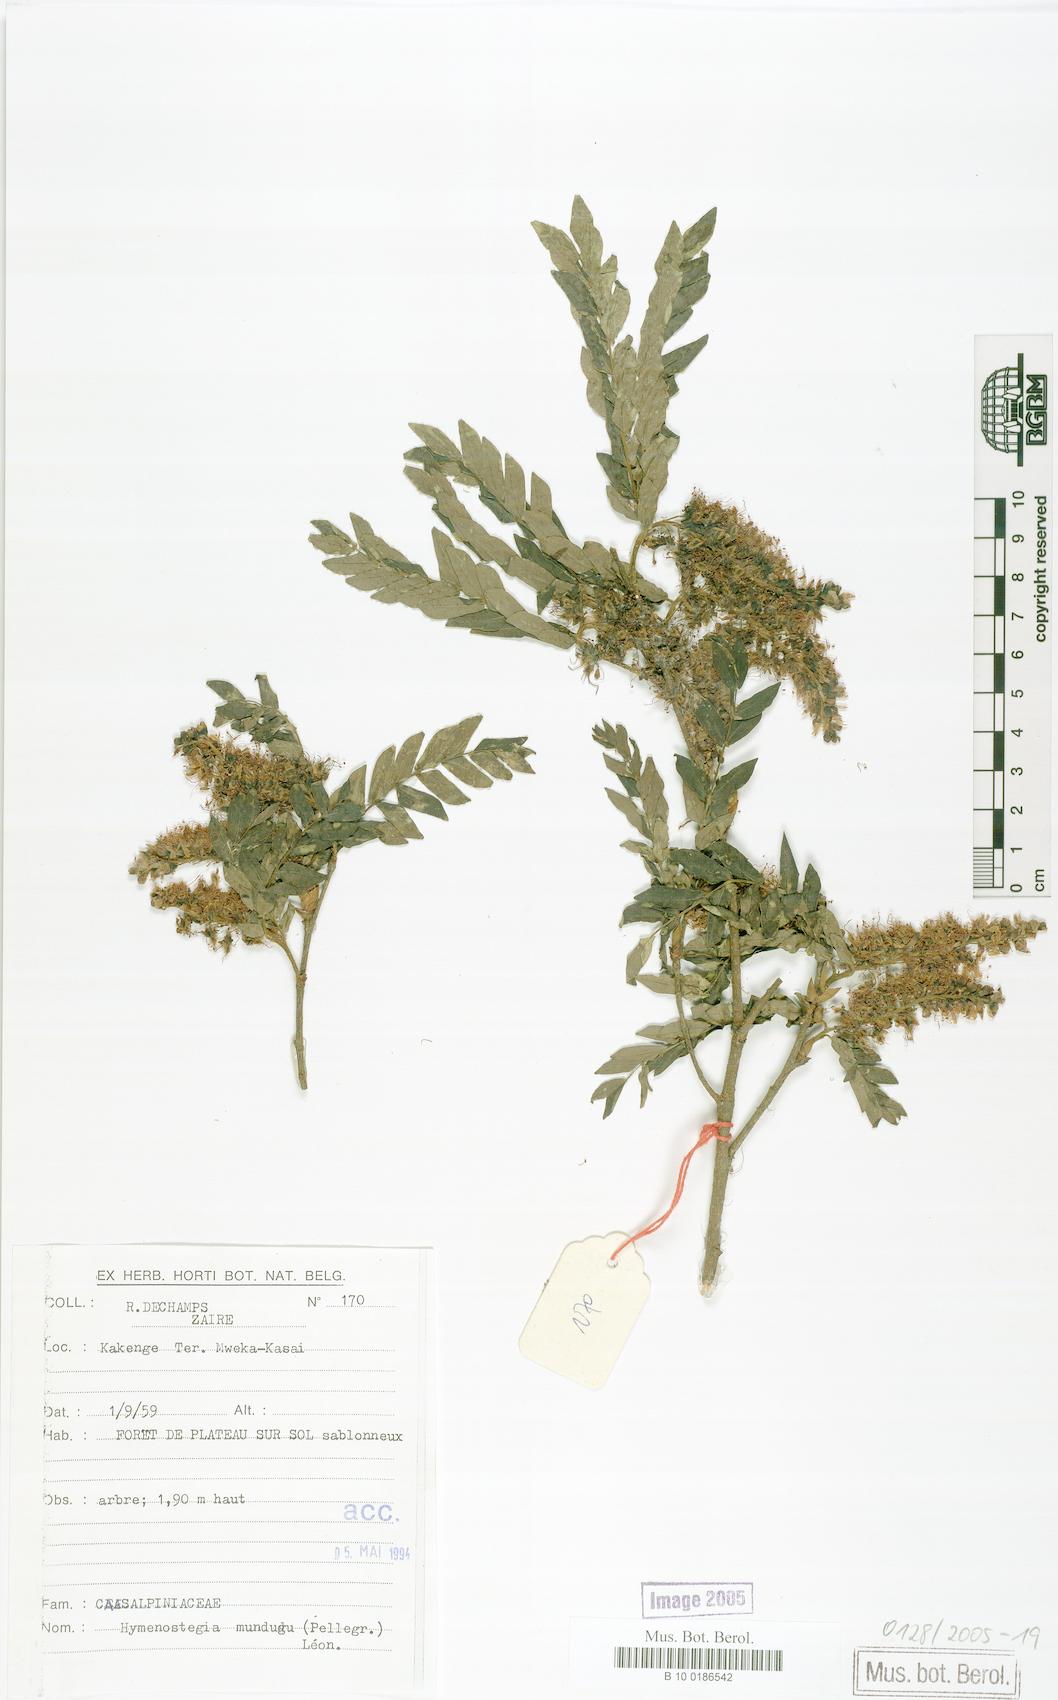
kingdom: Plantae
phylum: Tracheophyta
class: Magnoliopsida
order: Fabales
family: Fabaceae
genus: Hymenostegia
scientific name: Hymenostegia mundungu
